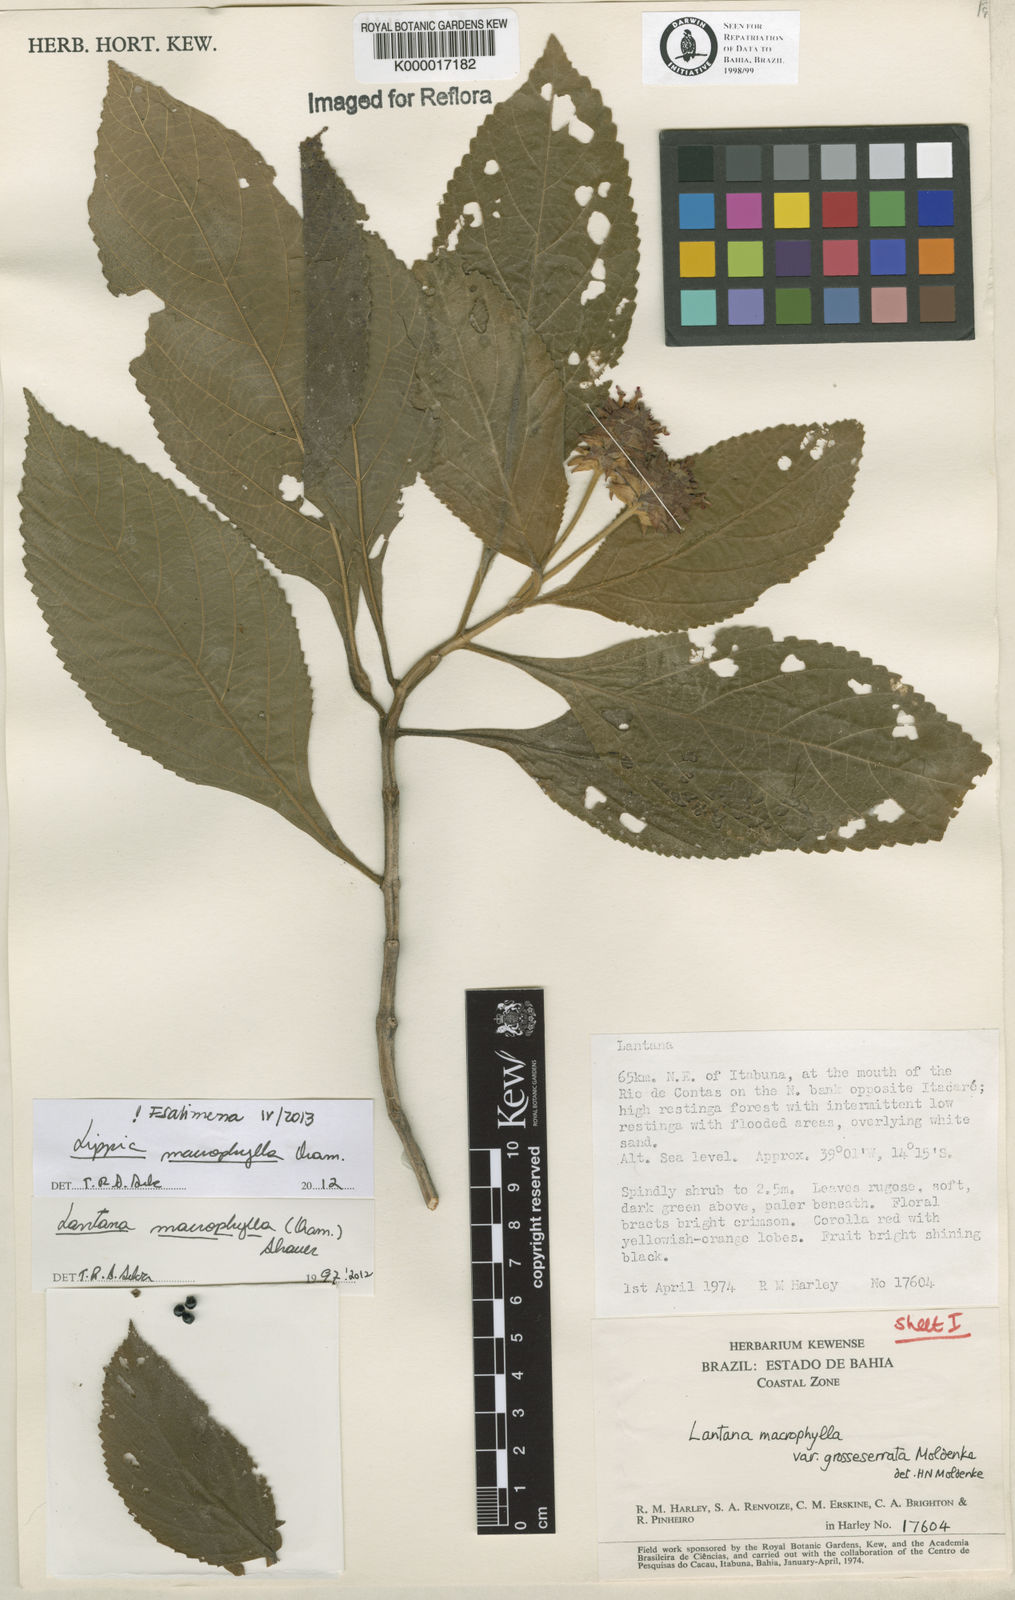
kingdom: Plantae
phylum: Tracheophyta
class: Magnoliopsida
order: Lamiales
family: Verbenaceae
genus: Lippia
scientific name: Lippia macrophylla
